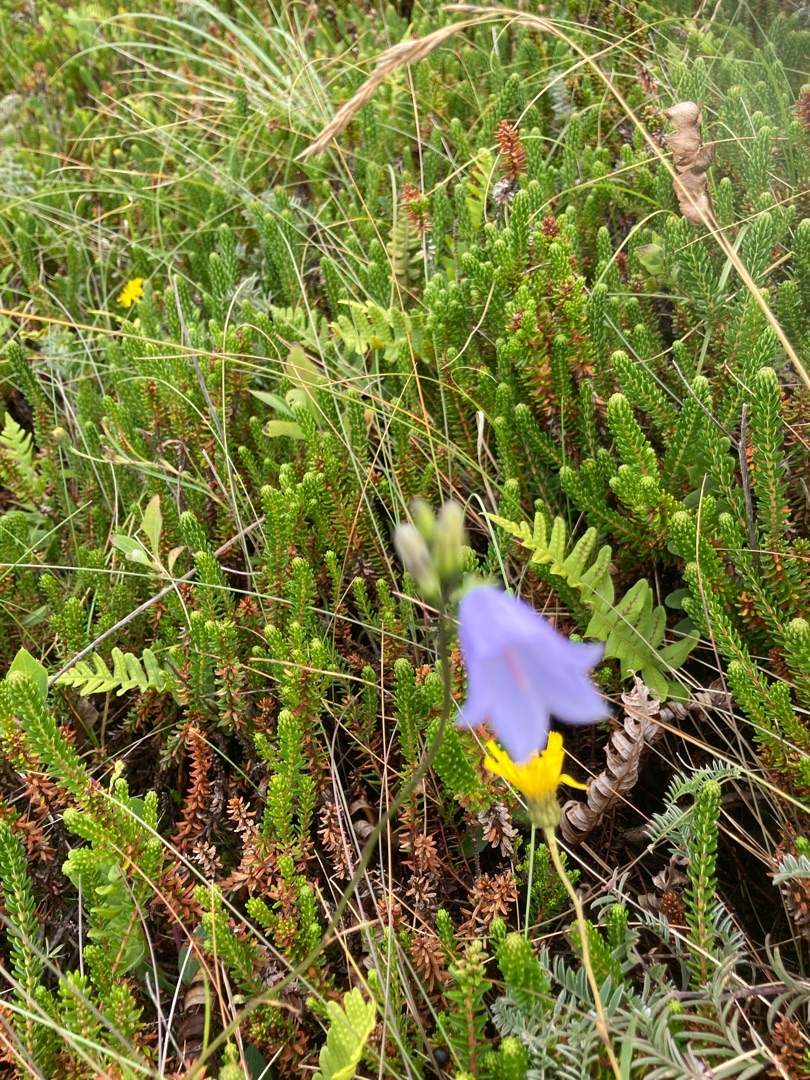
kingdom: Plantae
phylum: Tracheophyta
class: Magnoliopsida
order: Asterales
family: Campanulaceae
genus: Campanula
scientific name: Campanula rotundifolia
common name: Liden klokke
